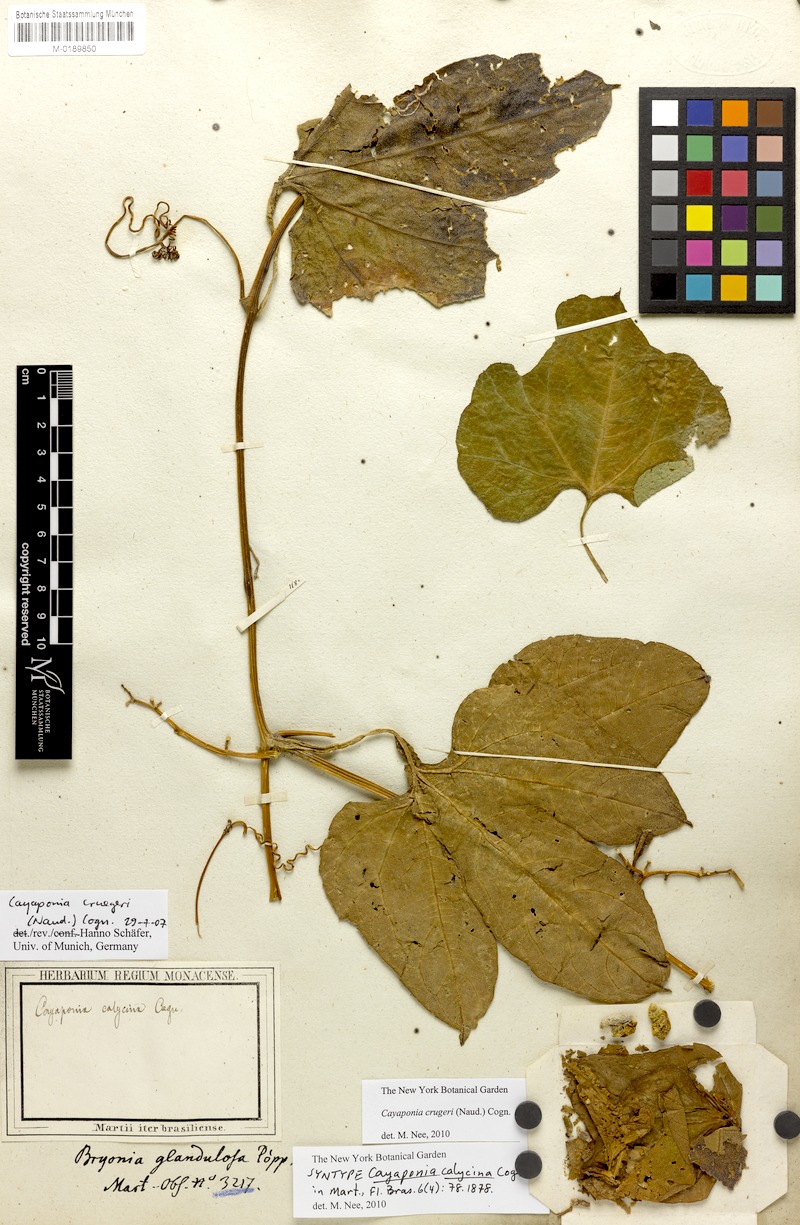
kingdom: Plantae
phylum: Tracheophyta
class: Magnoliopsida
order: Cucurbitales
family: Cucurbitaceae
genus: Cayaponia
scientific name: Cayaponia crugeri
